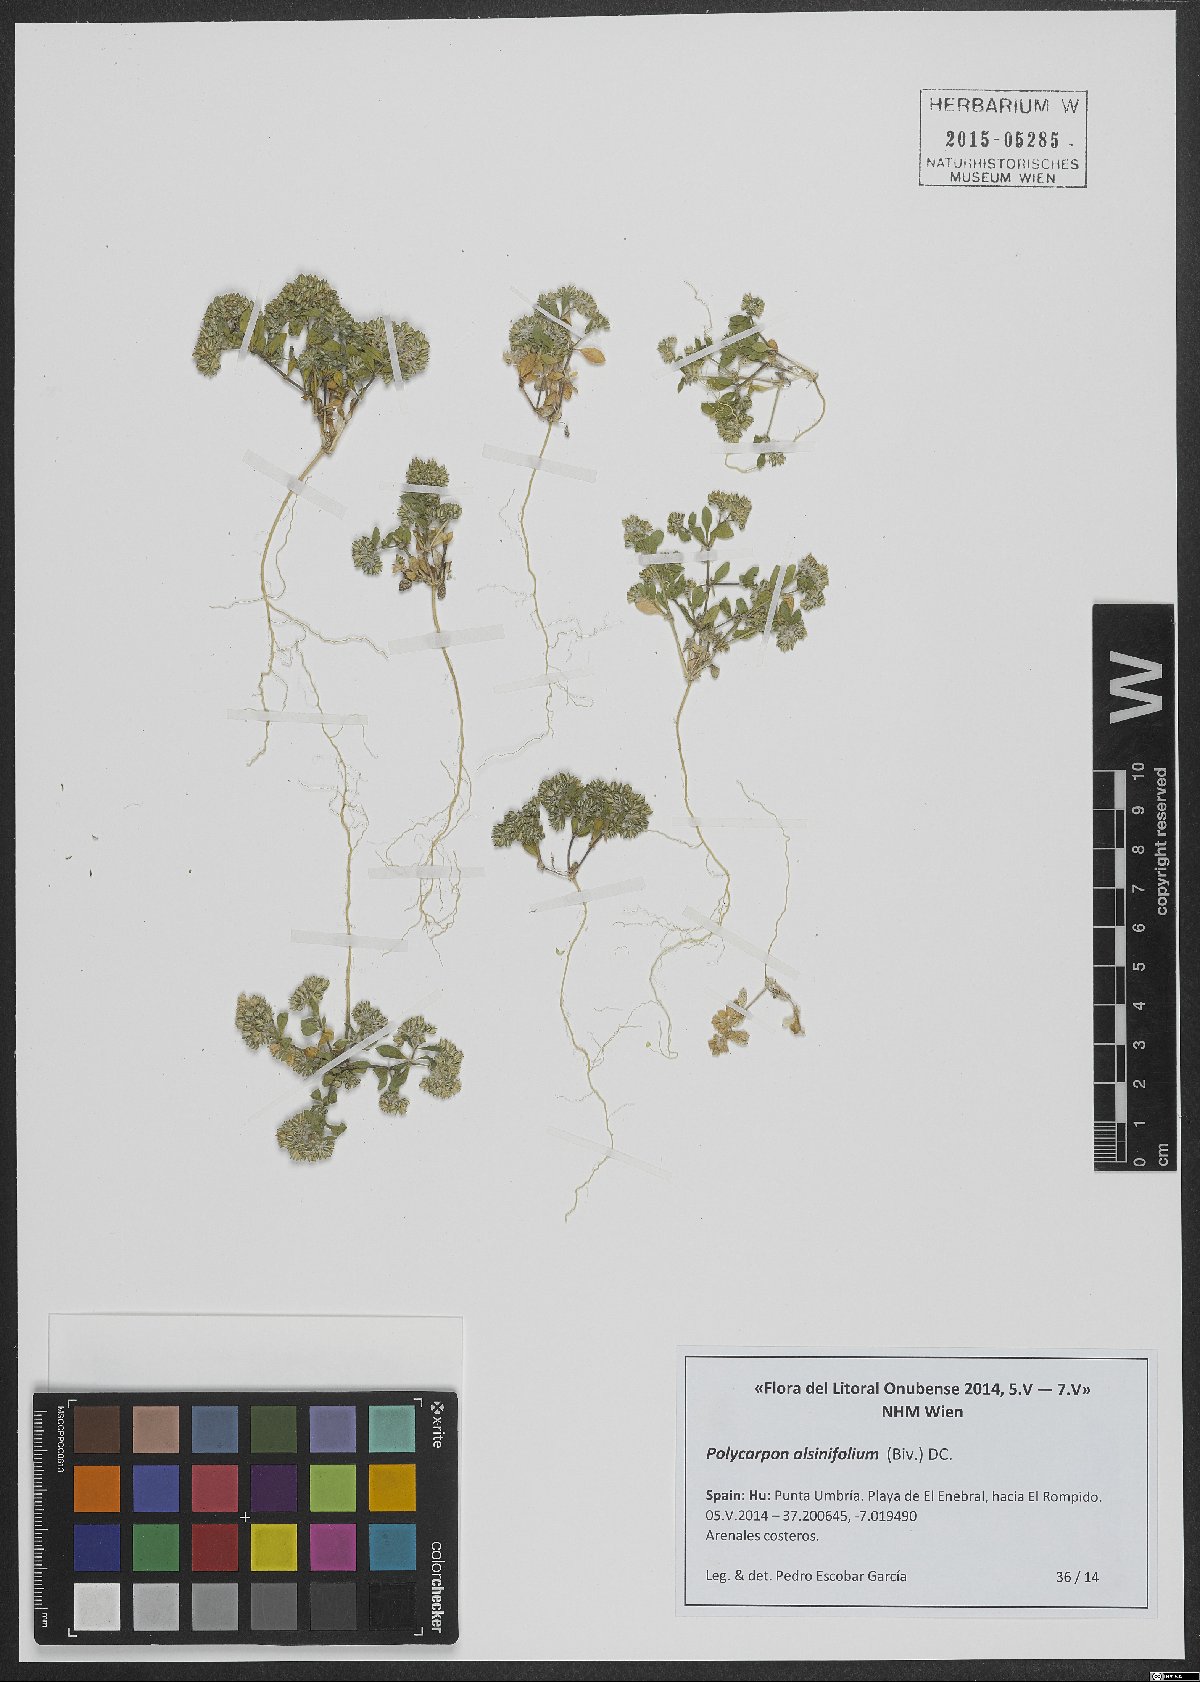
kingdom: Plantae
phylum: Tracheophyta
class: Magnoliopsida
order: Caryophyllales
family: Caryophyllaceae
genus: Polycarpon
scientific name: Polycarpon alsinifolium
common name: Fourleaf manyseed
